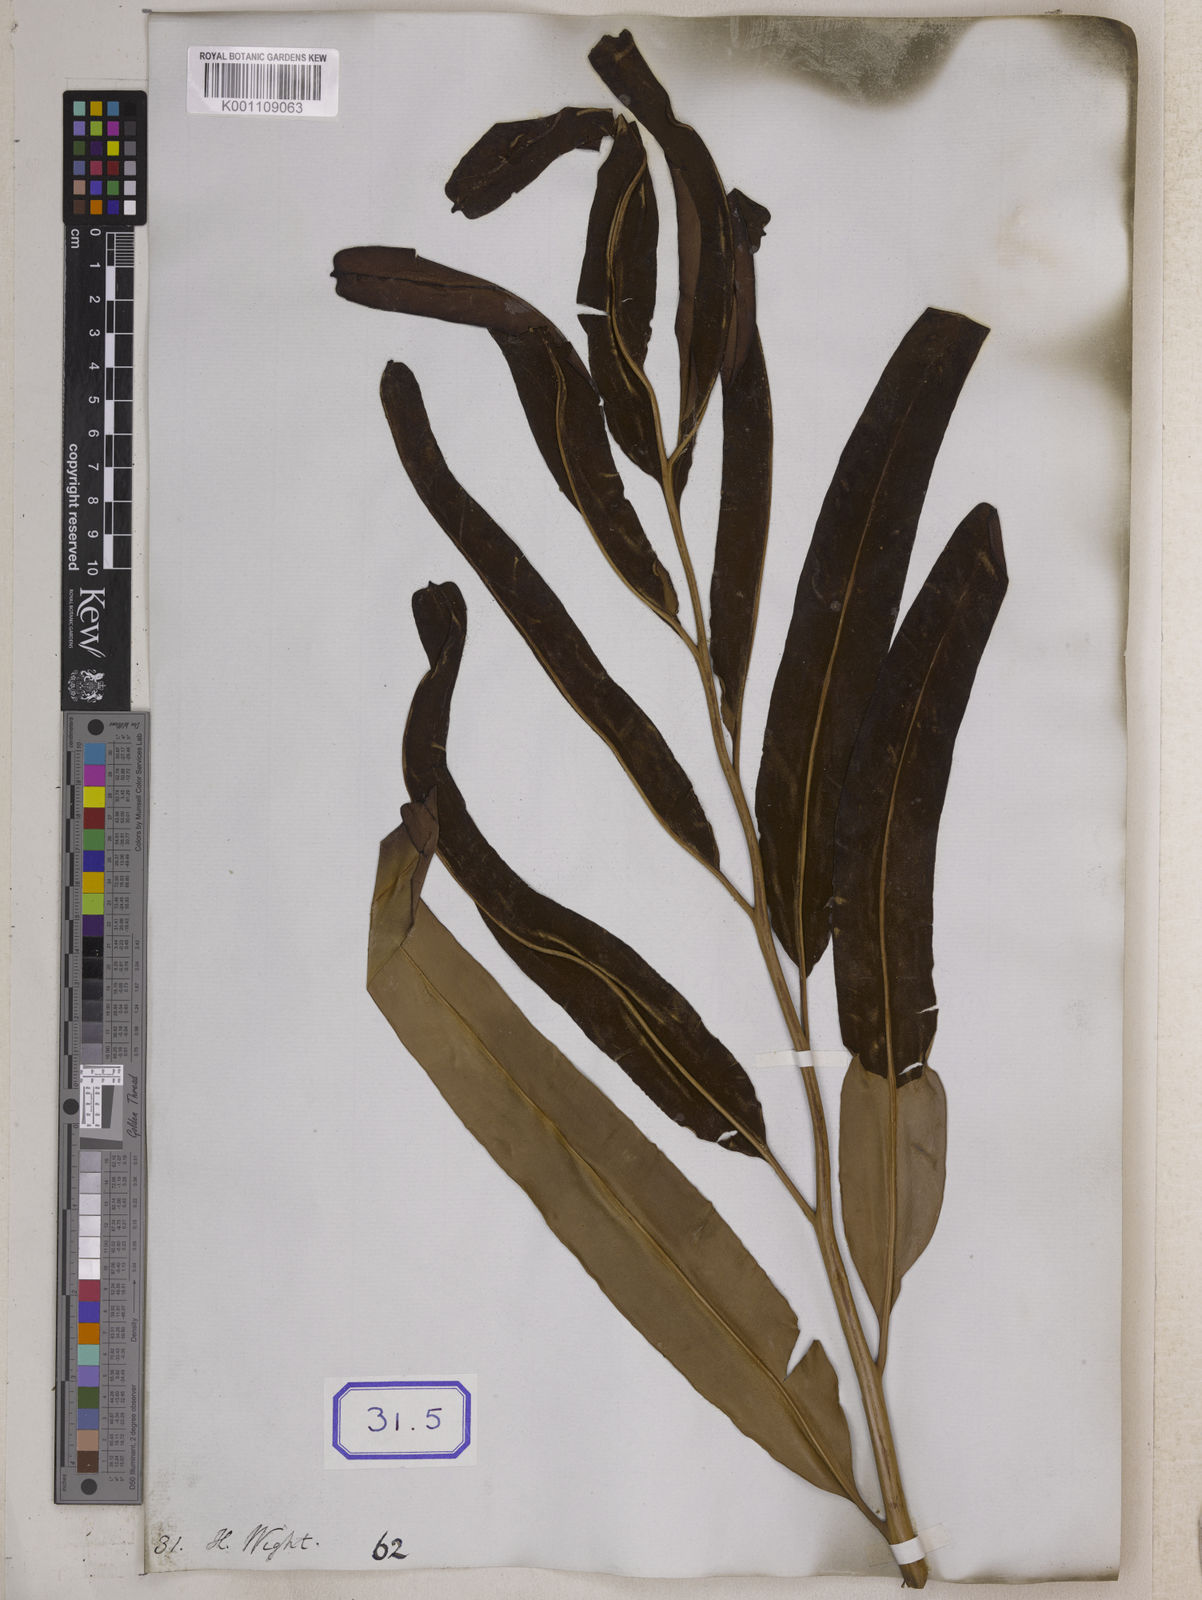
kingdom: Plantae
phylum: Tracheophyta
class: Polypodiopsida
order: Polypodiales
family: Pteridaceae
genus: Acrostichum
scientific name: Acrostichum aureum
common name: Leather fern
